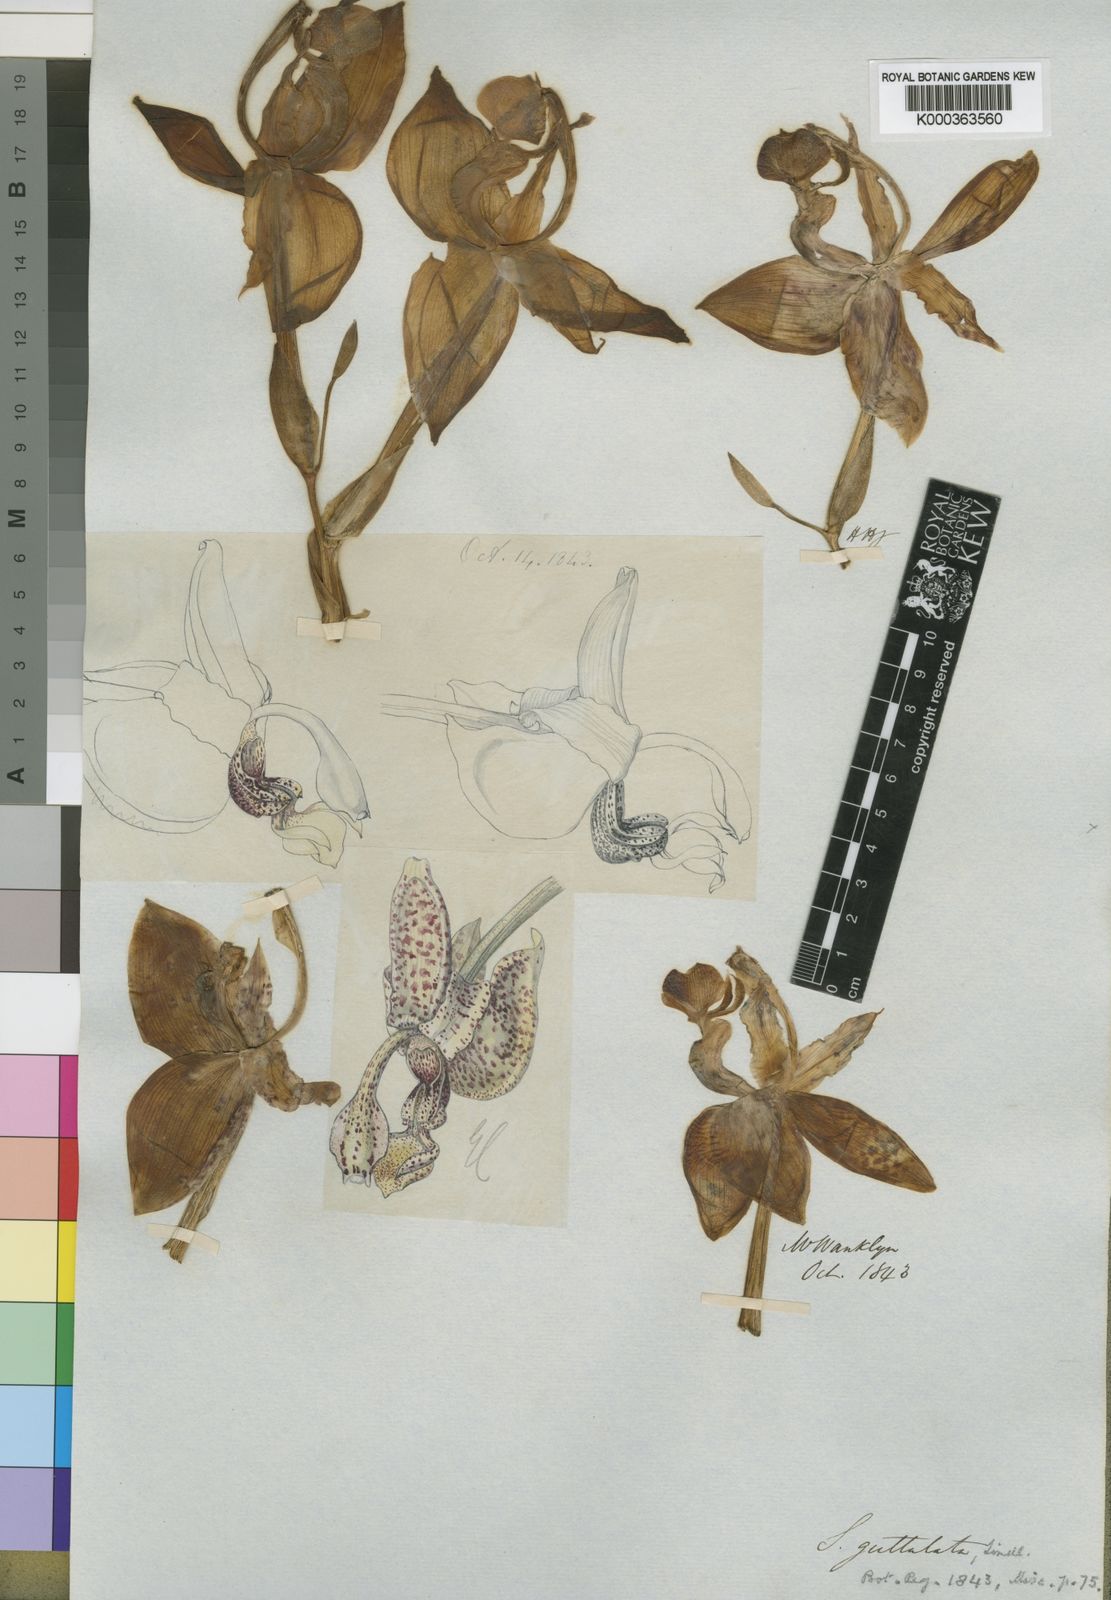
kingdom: Plantae
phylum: Tracheophyta
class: Liliopsida
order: Asparagales
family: Orchidaceae
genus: Stanhopea
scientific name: Stanhopea guttulata
